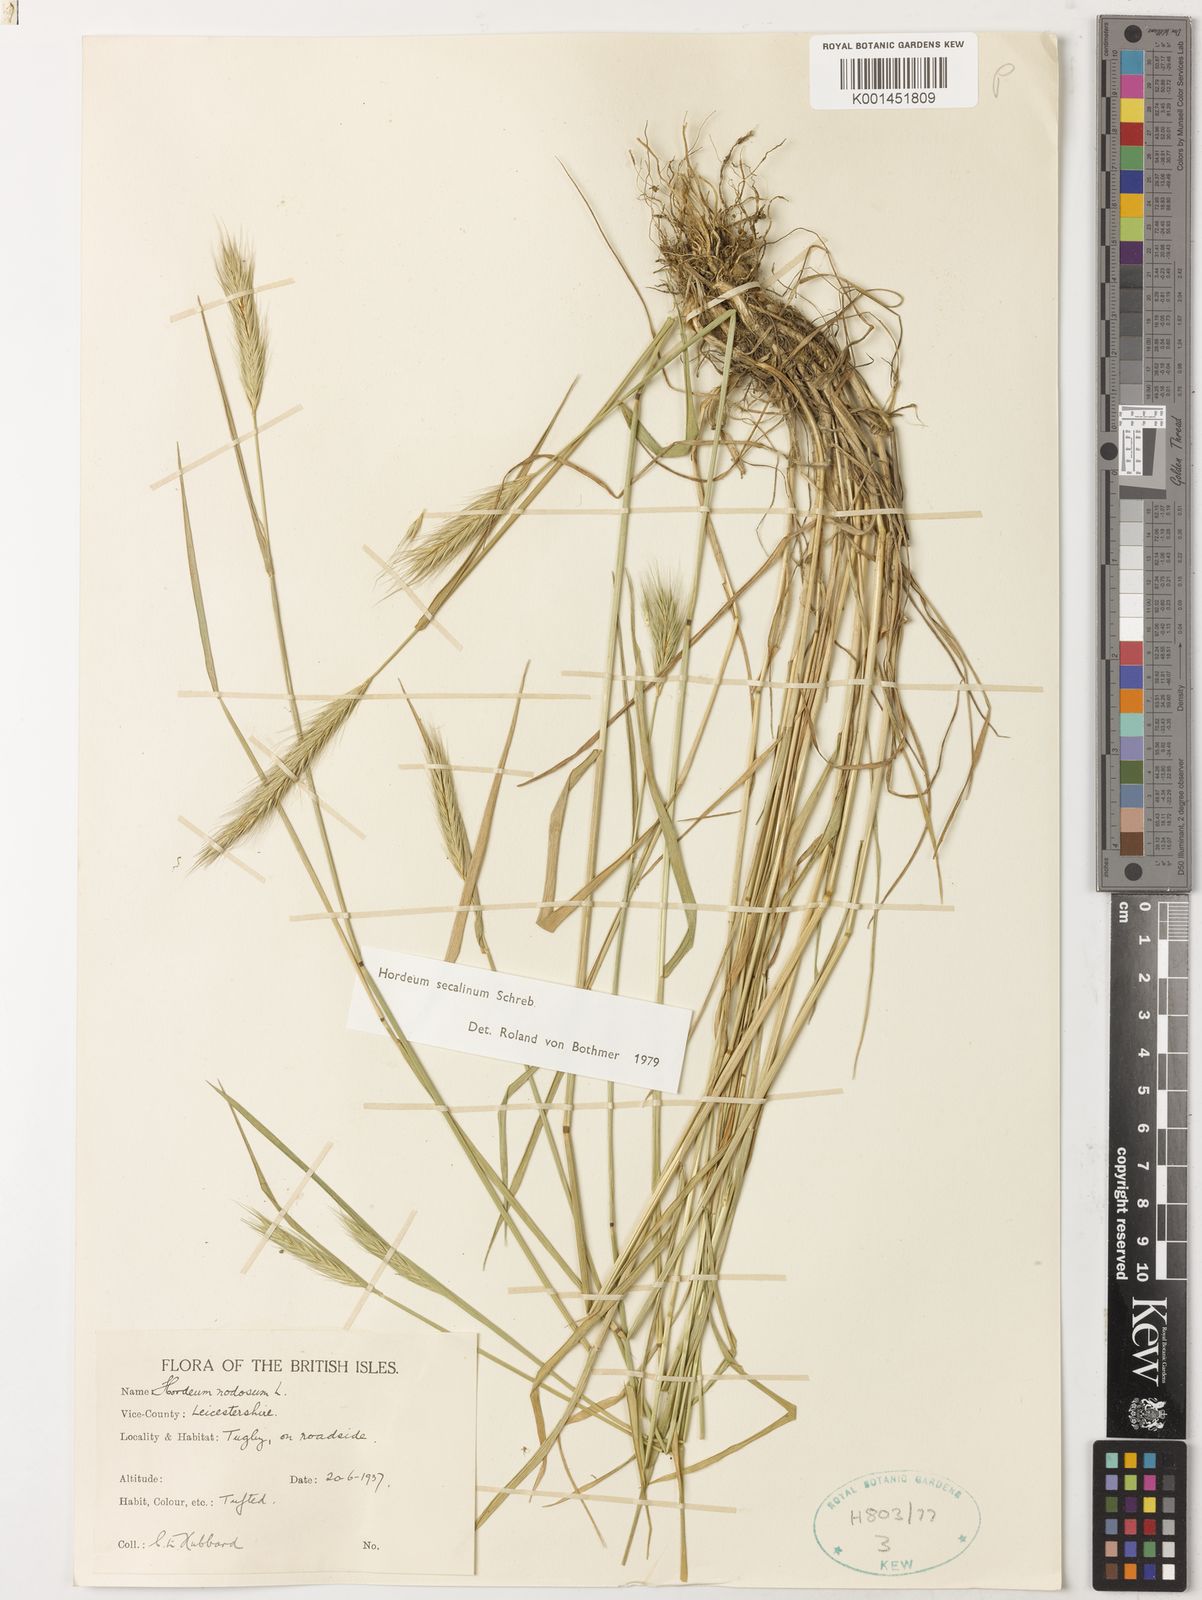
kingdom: Plantae
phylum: Tracheophyta
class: Liliopsida
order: Poales
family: Poaceae
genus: Hordeum
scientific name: Hordeum secalinum
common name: Meadow barley
